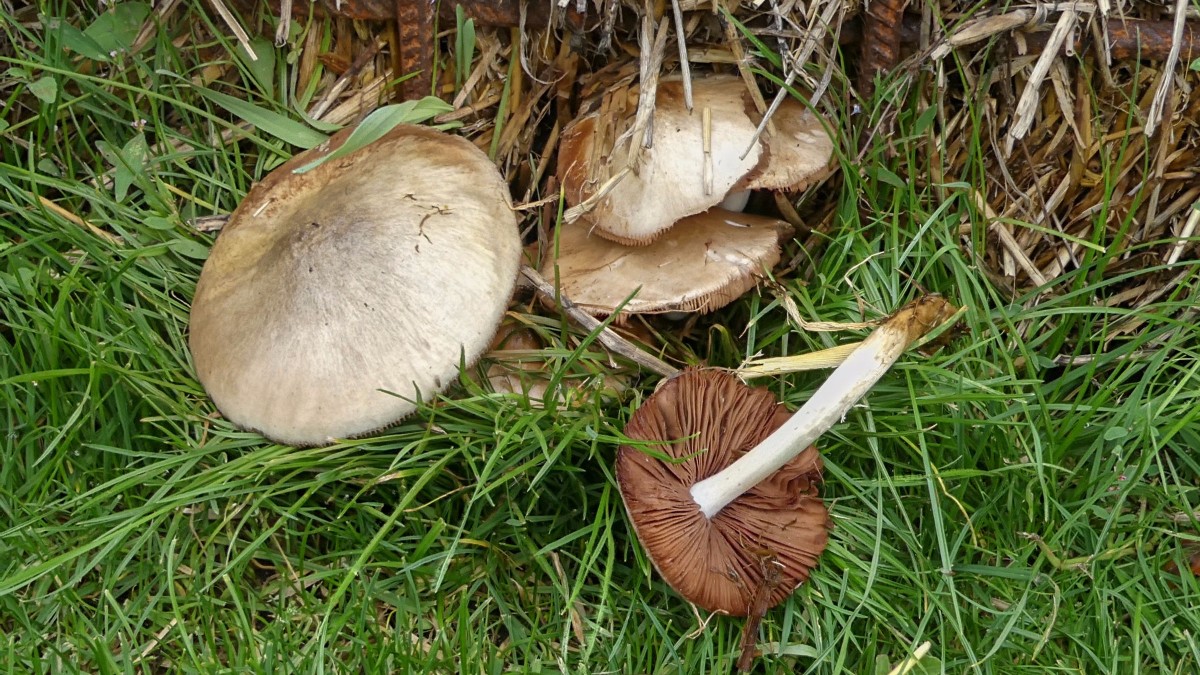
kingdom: Fungi
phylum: Basidiomycota
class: Agaricomycetes
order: Agaricales
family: Pluteaceae
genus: Volvopluteus
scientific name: Volvopluteus gloiocephalus
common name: høj posesvamp
